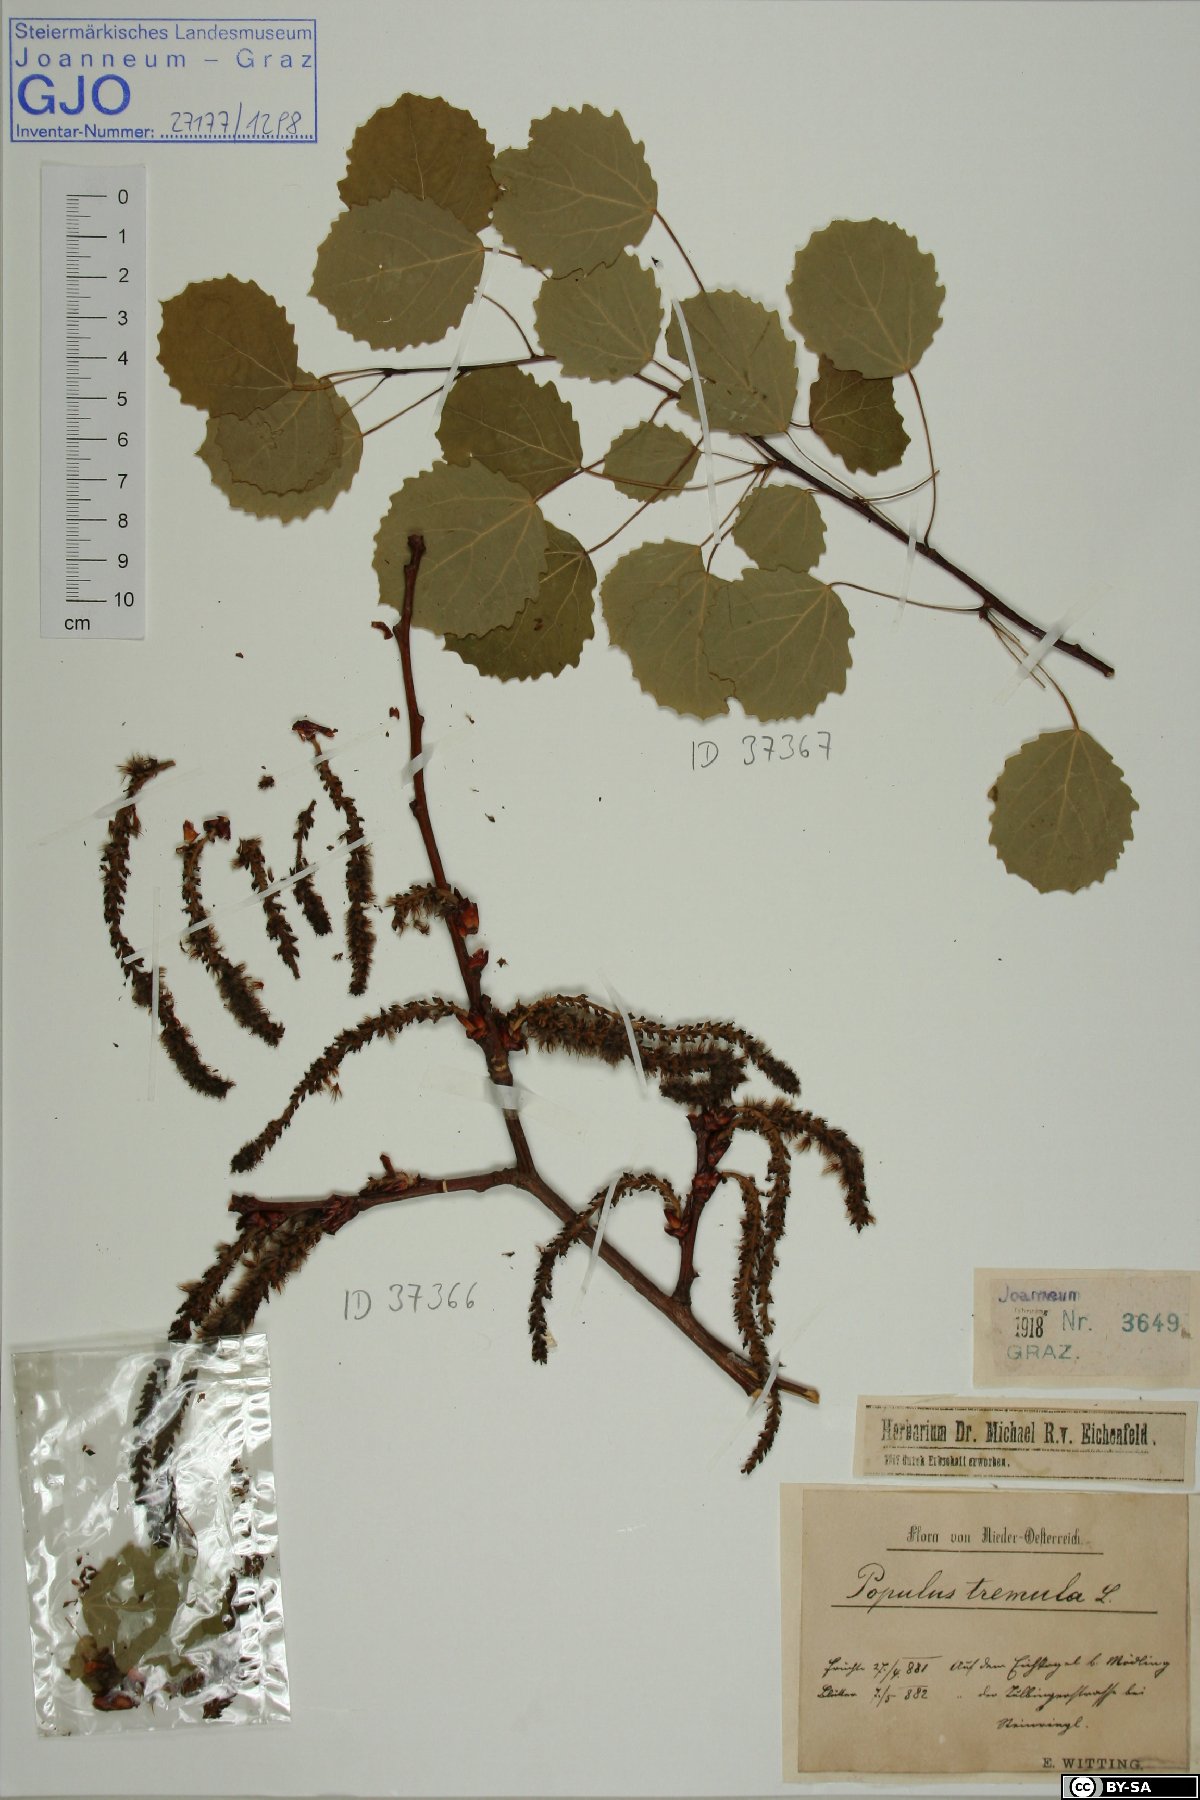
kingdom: Plantae
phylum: Tracheophyta
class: Magnoliopsida
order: Malpighiales
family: Salicaceae
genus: Populus
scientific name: Populus tremula
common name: European aspen
